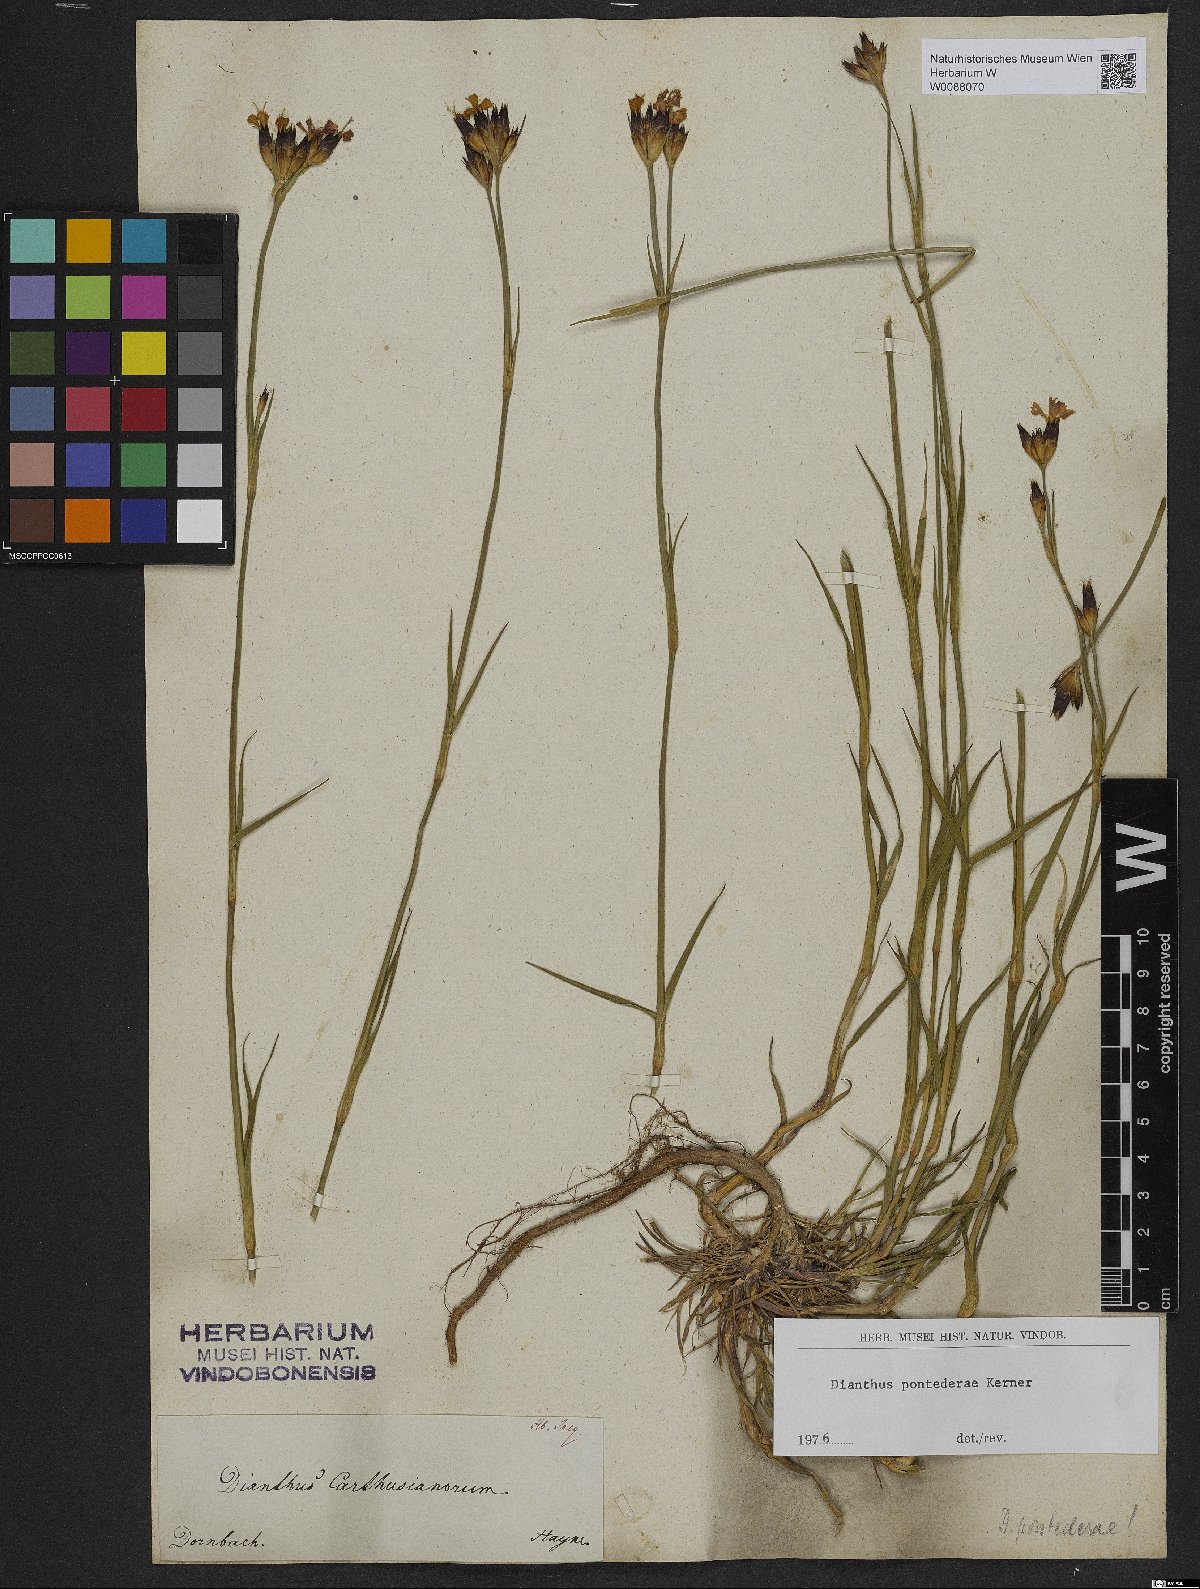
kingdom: Plantae
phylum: Tracheophyta
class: Magnoliopsida
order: Caryophyllales
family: Caryophyllaceae
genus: Dianthus
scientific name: Dianthus pontederae
